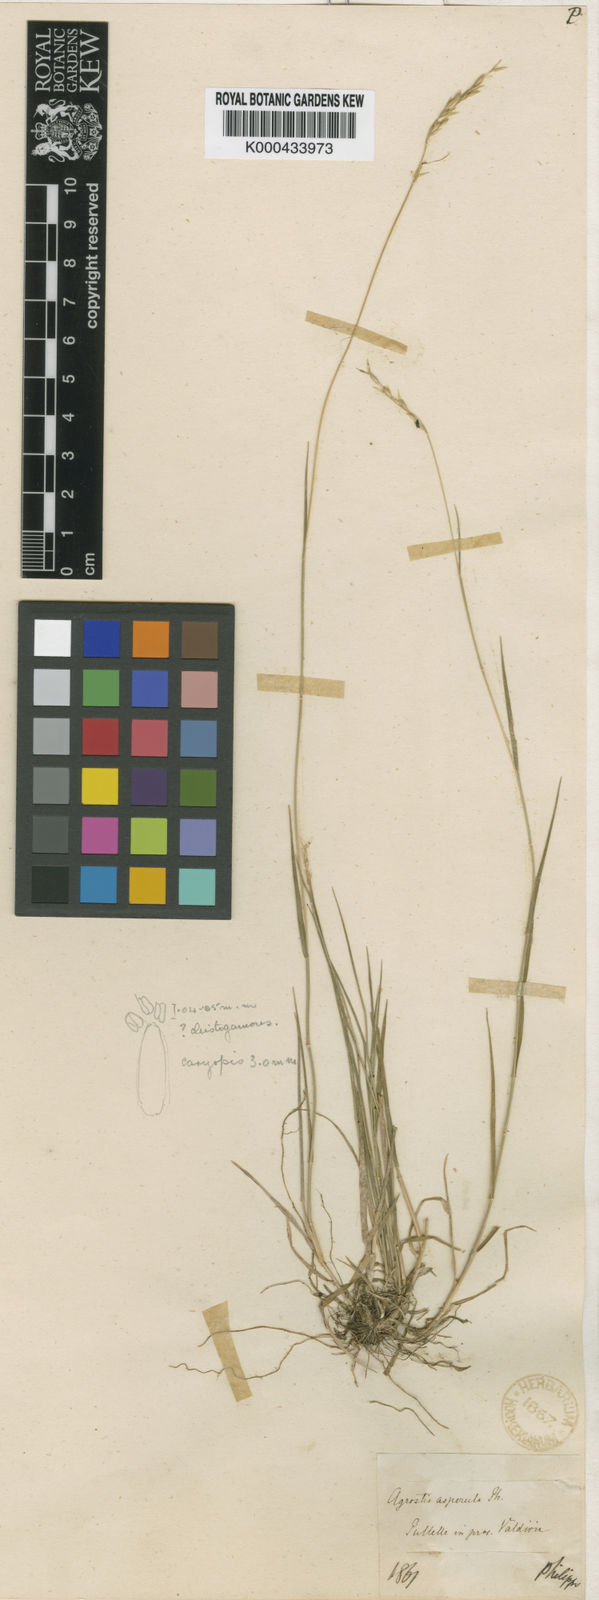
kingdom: Plantae
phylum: Tracheophyta
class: Liliopsida
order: Poales
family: Poaceae
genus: Relchela
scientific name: Relchela panicoides
